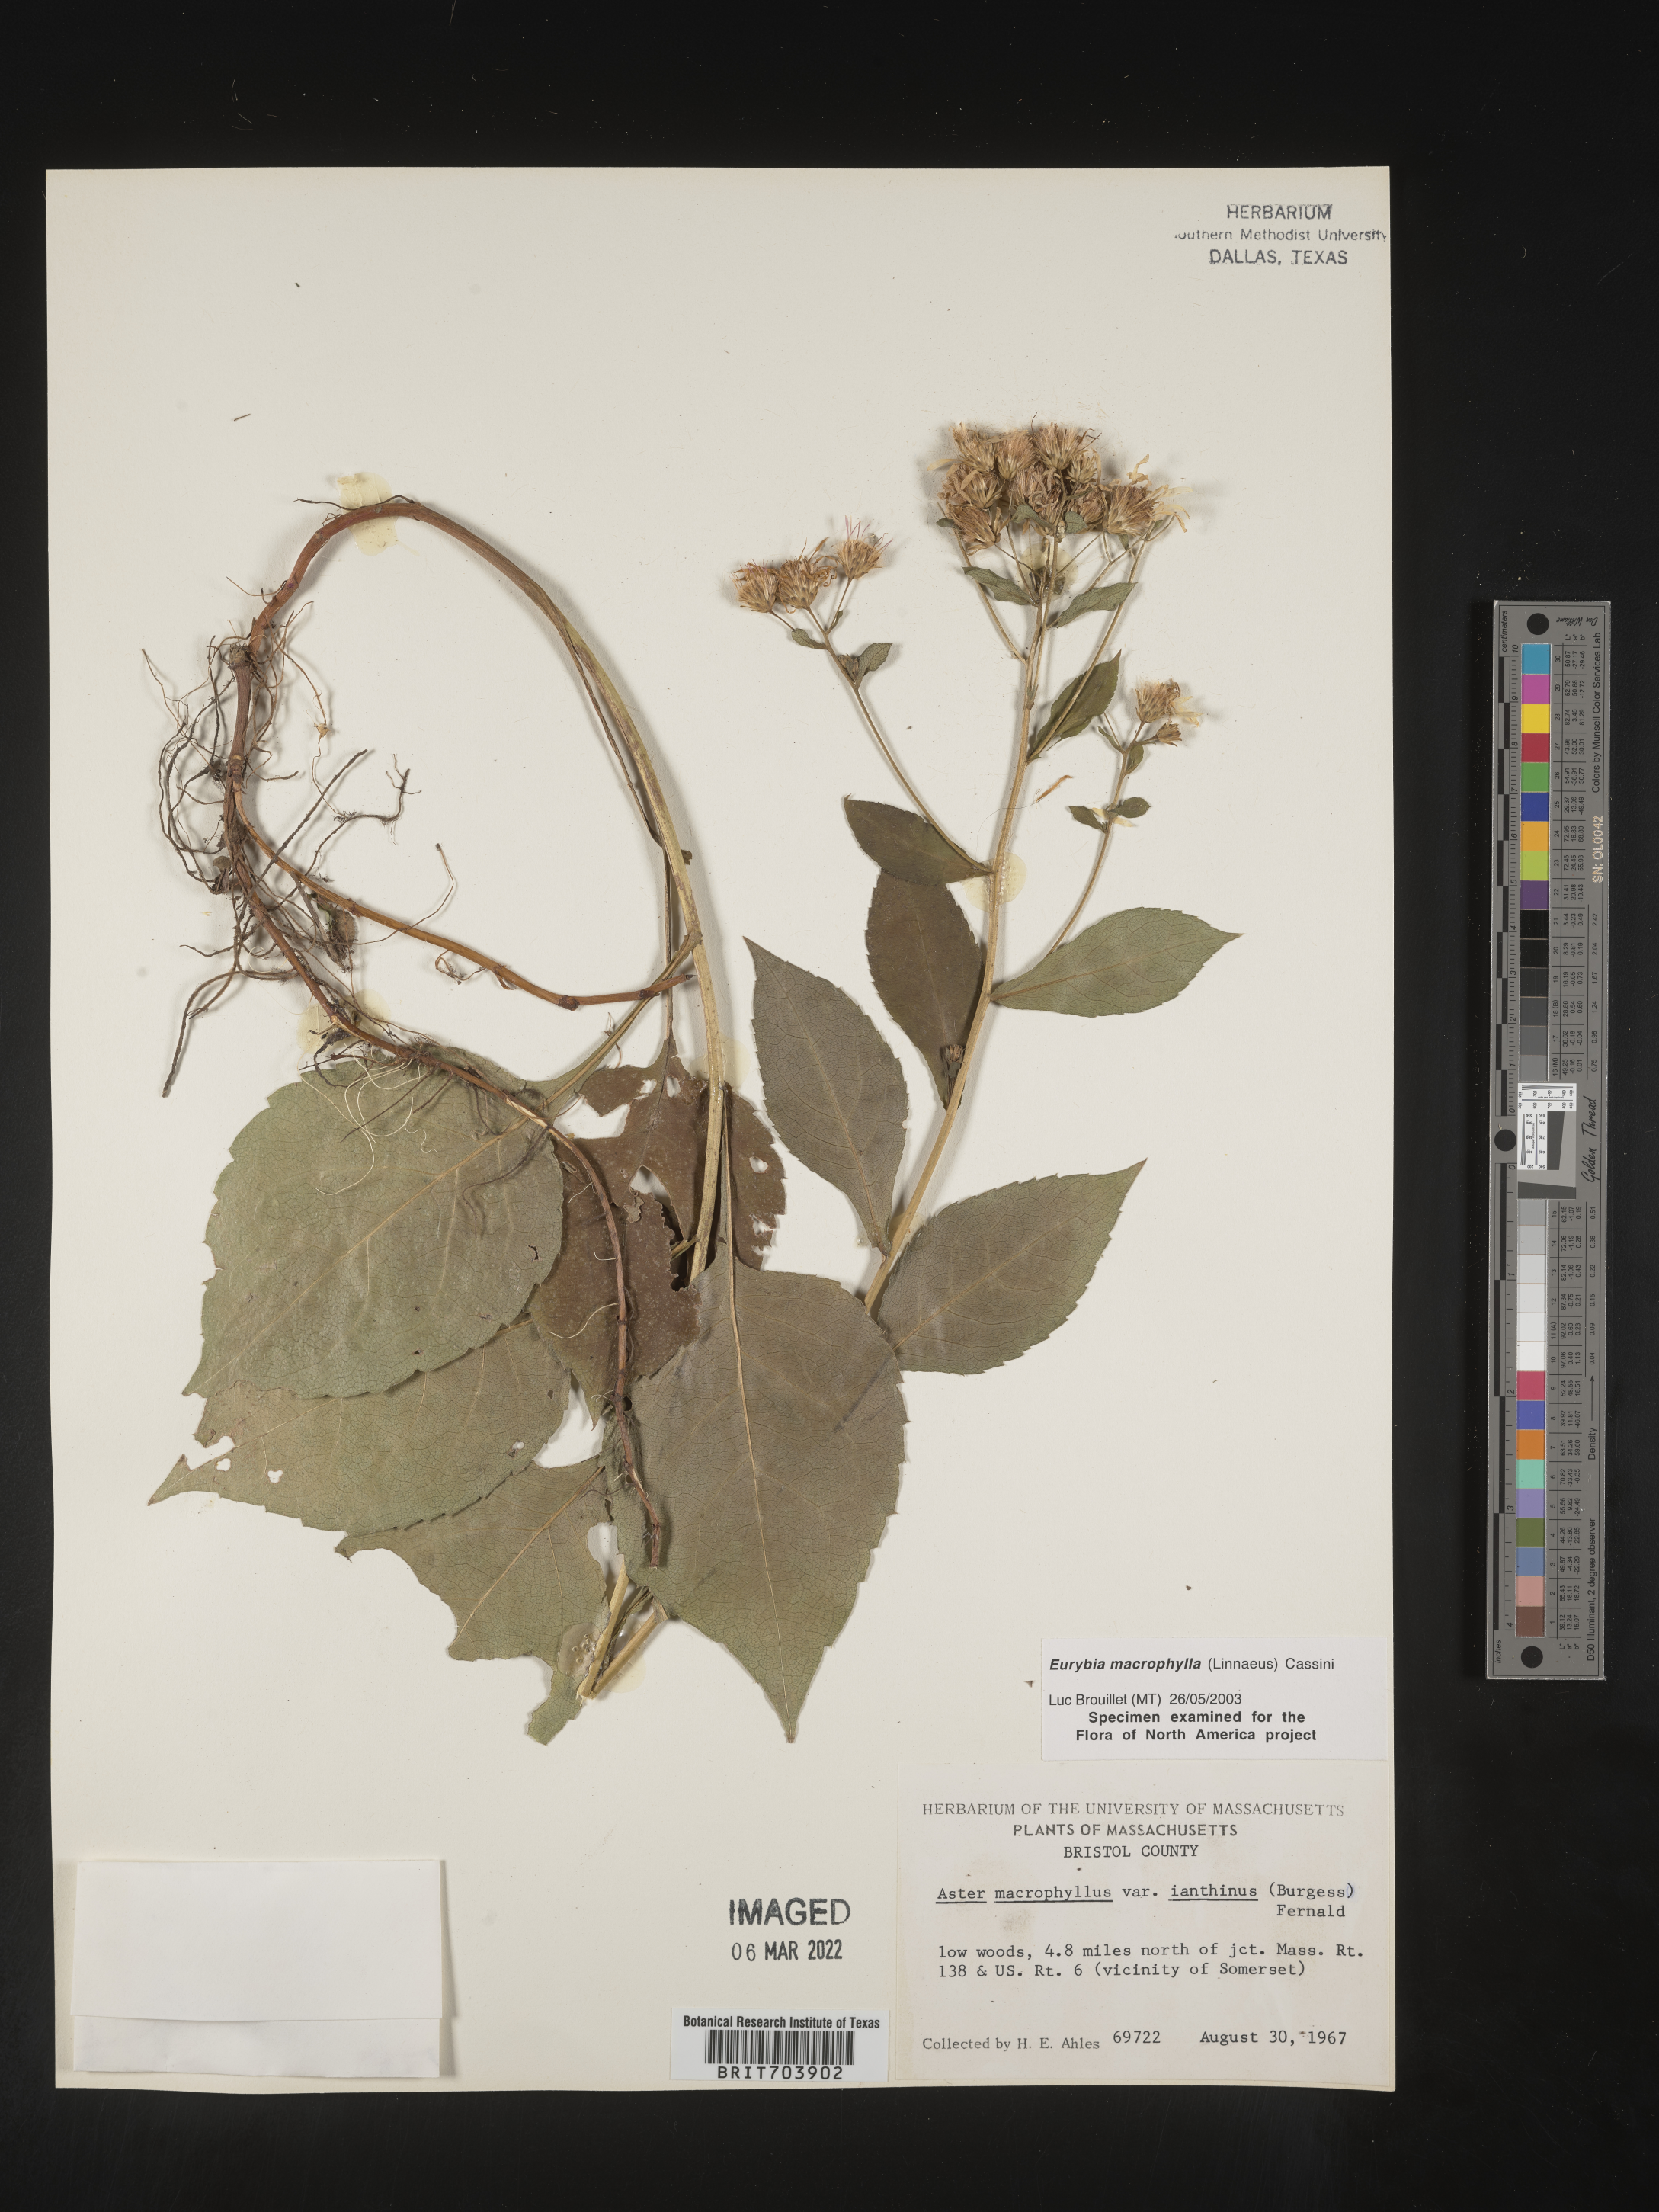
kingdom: Plantae
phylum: Tracheophyta
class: Magnoliopsida
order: Asterales
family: Asteraceae
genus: Eurybia
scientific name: Eurybia macrophylla
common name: Big-leaved aster
